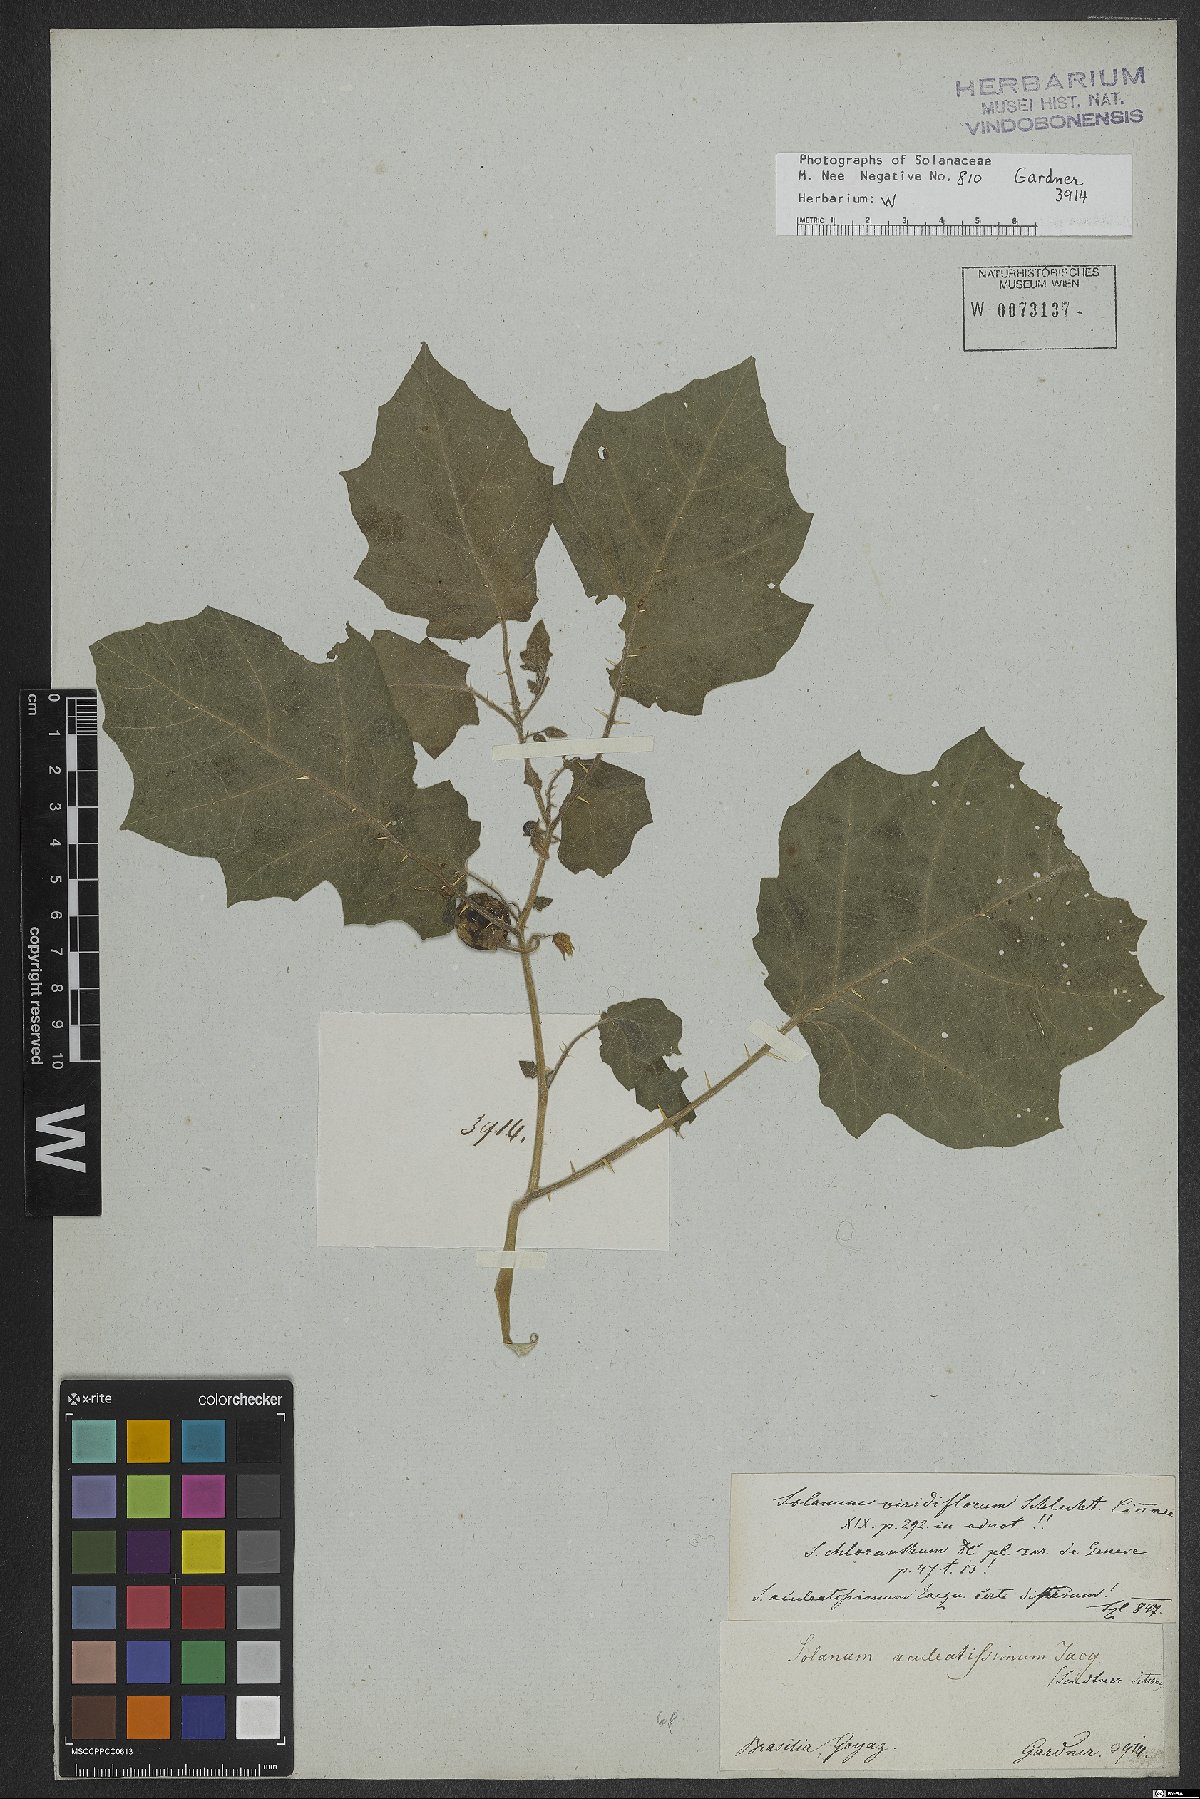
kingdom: Plantae
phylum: Tracheophyta
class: Magnoliopsida
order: Solanales
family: Solanaceae
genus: Solanum
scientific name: Solanum myriacanthum
